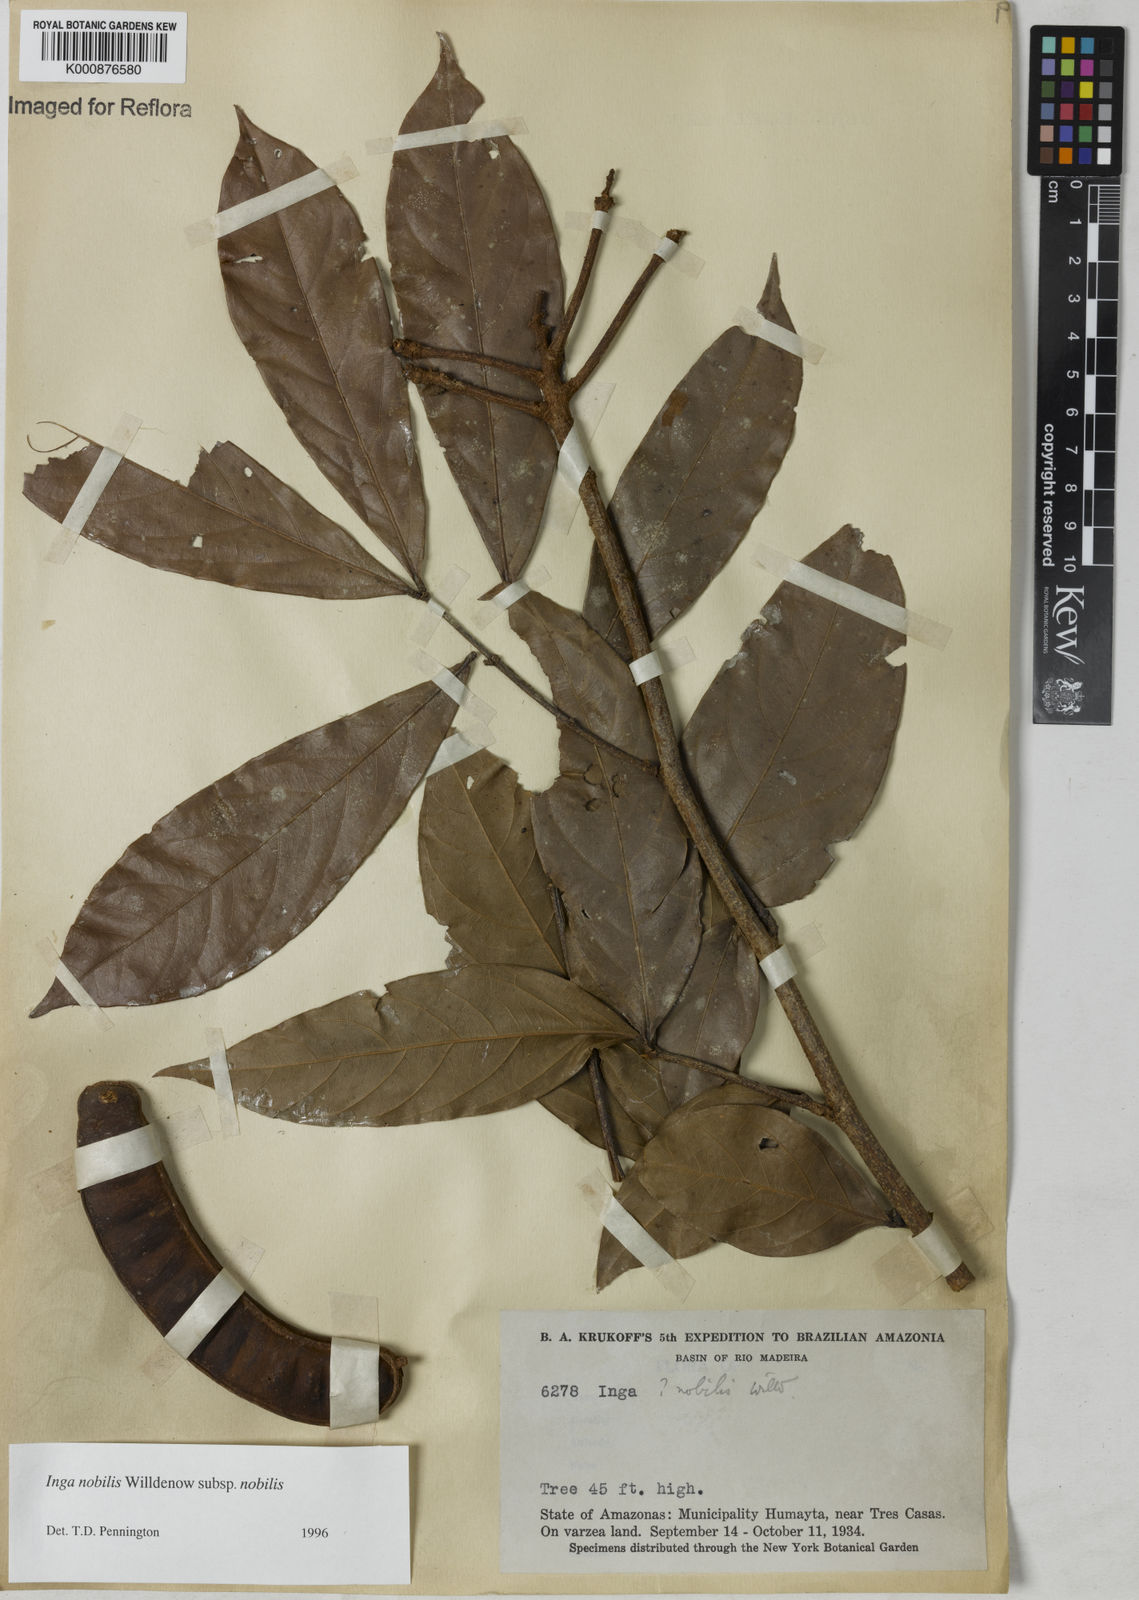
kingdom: Plantae
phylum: Tracheophyta
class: Magnoliopsida
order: Fabales
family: Fabaceae
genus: Inga
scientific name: Inga nobilis
